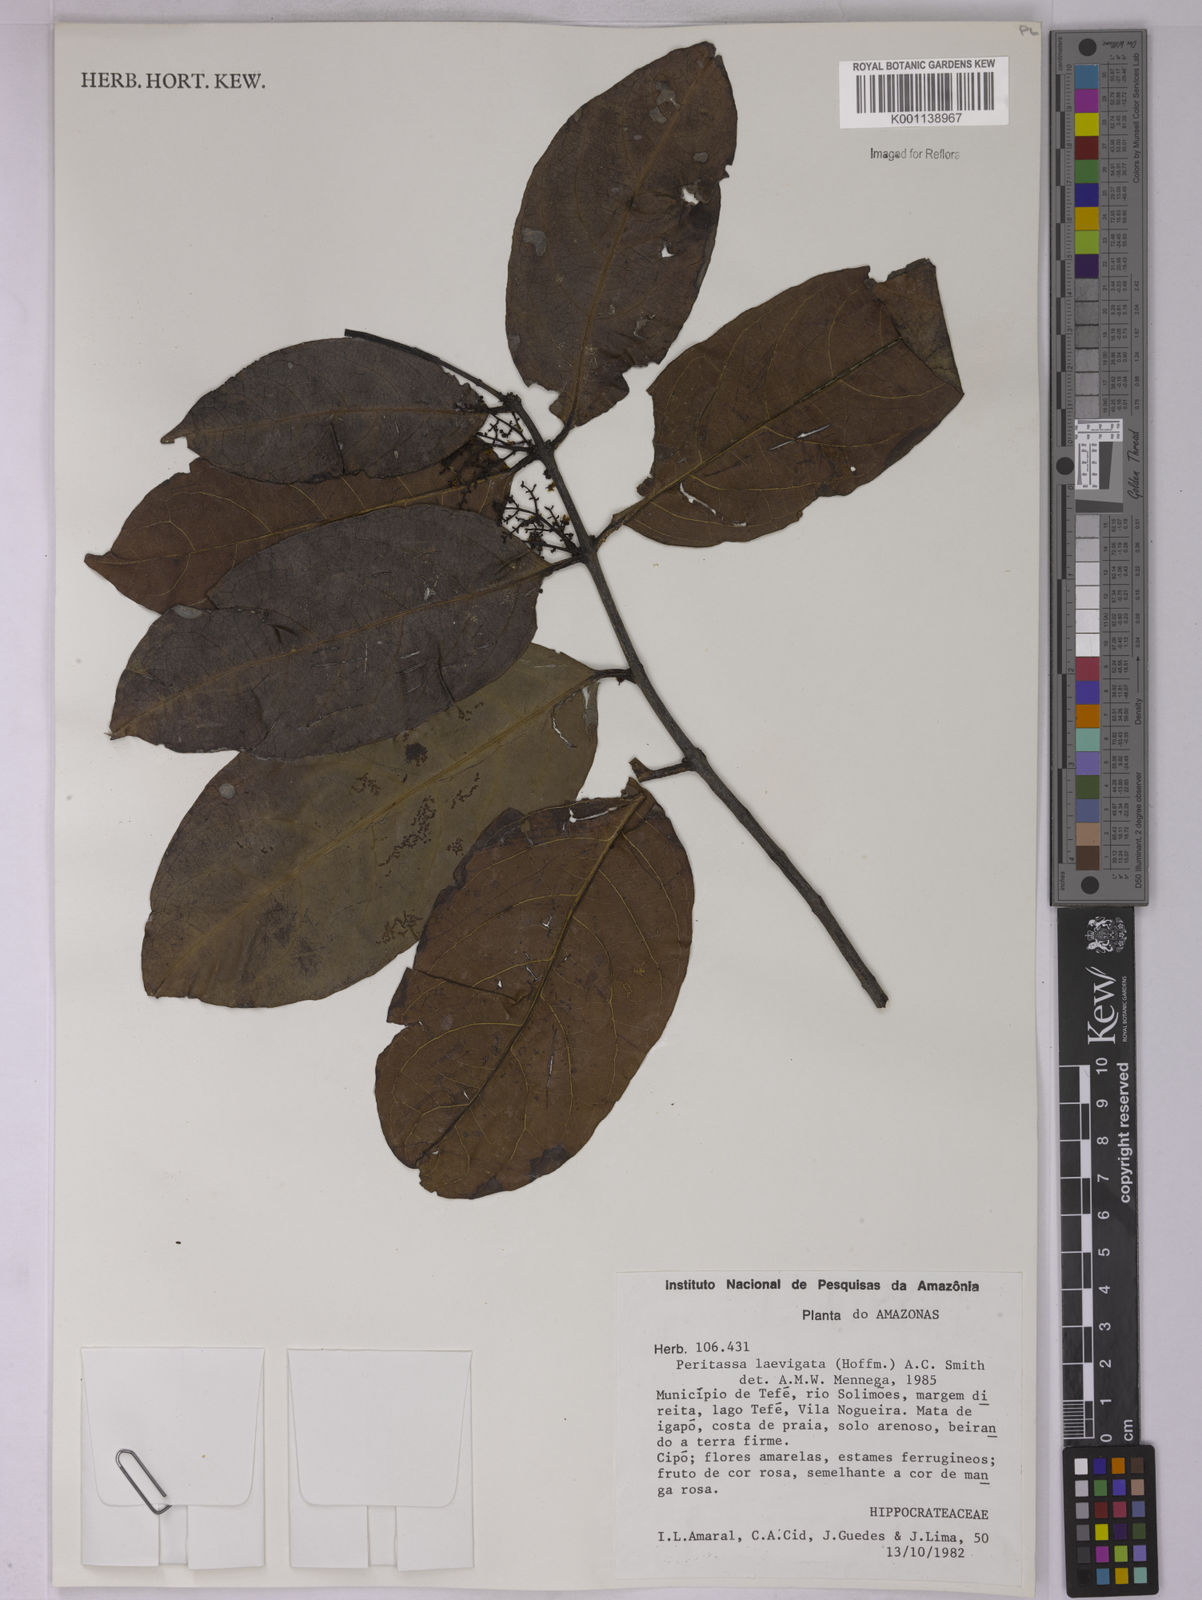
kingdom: Plantae
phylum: Tracheophyta
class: Magnoliopsida
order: Celastrales
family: Celastraceae
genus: Peritassa
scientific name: Peritassa laevigata
